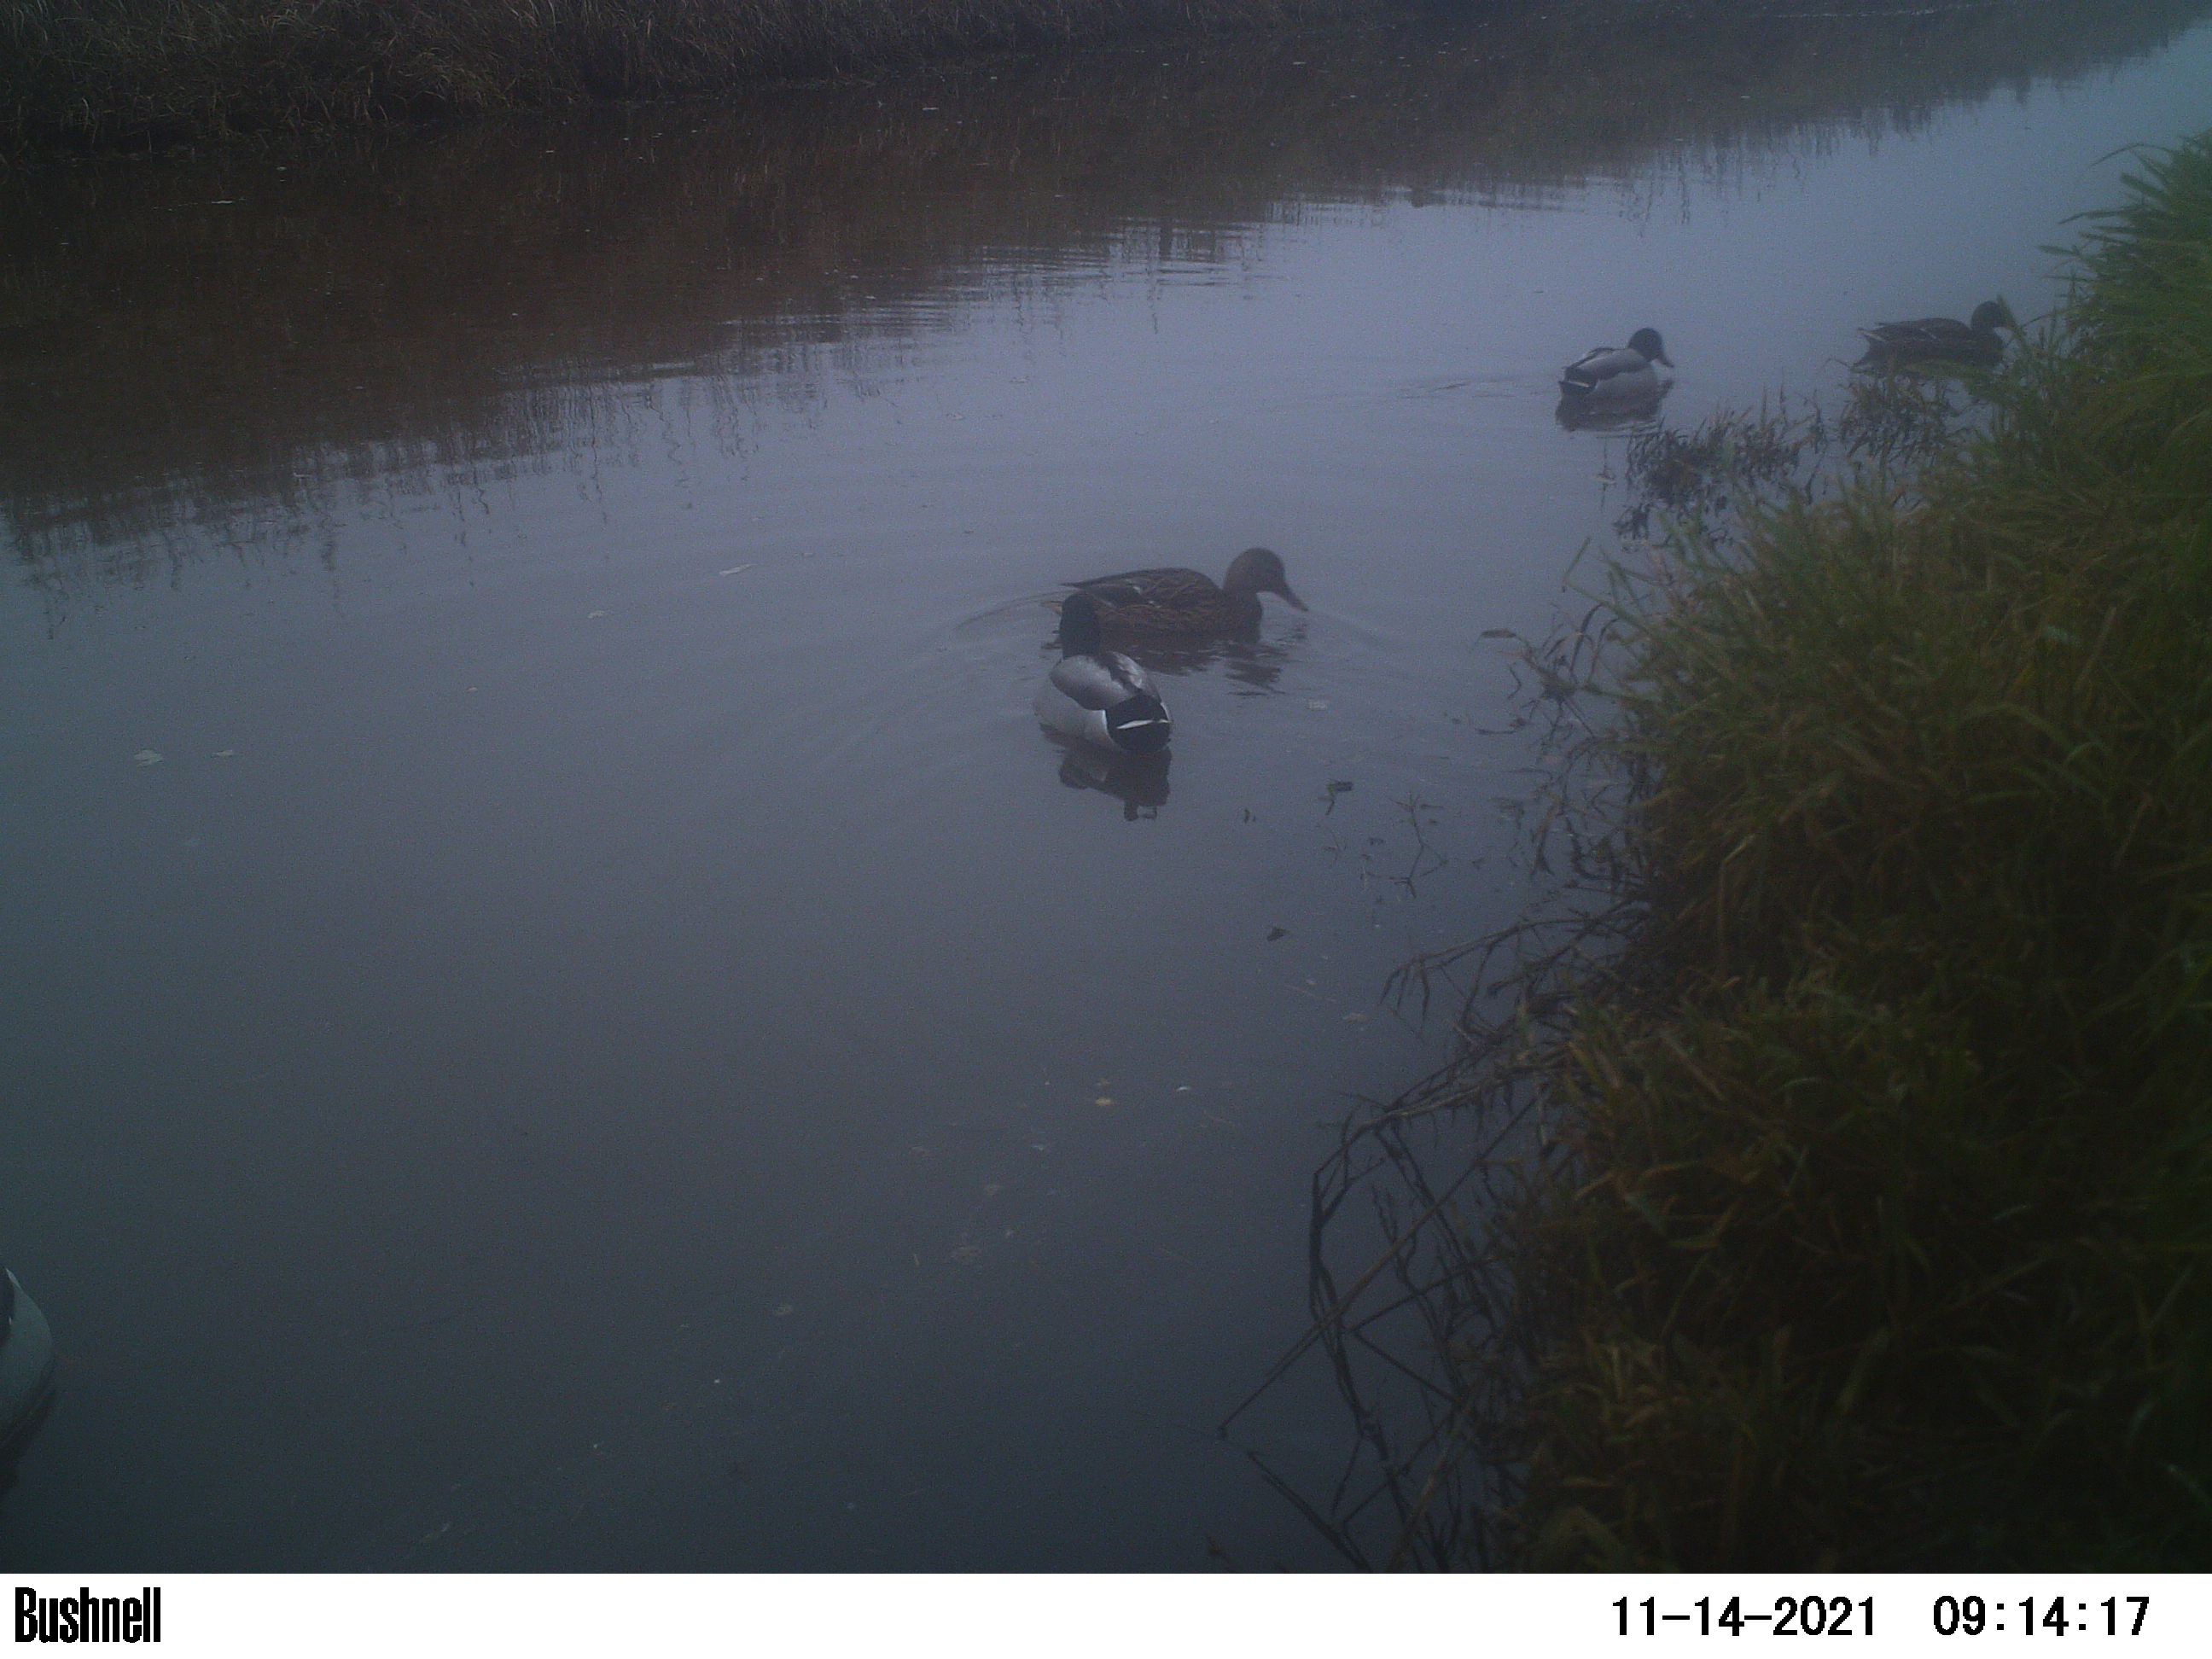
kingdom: Animalia
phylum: Chordata
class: Aves
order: Anseriformes
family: Anatidae
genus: Anas
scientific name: Anas
